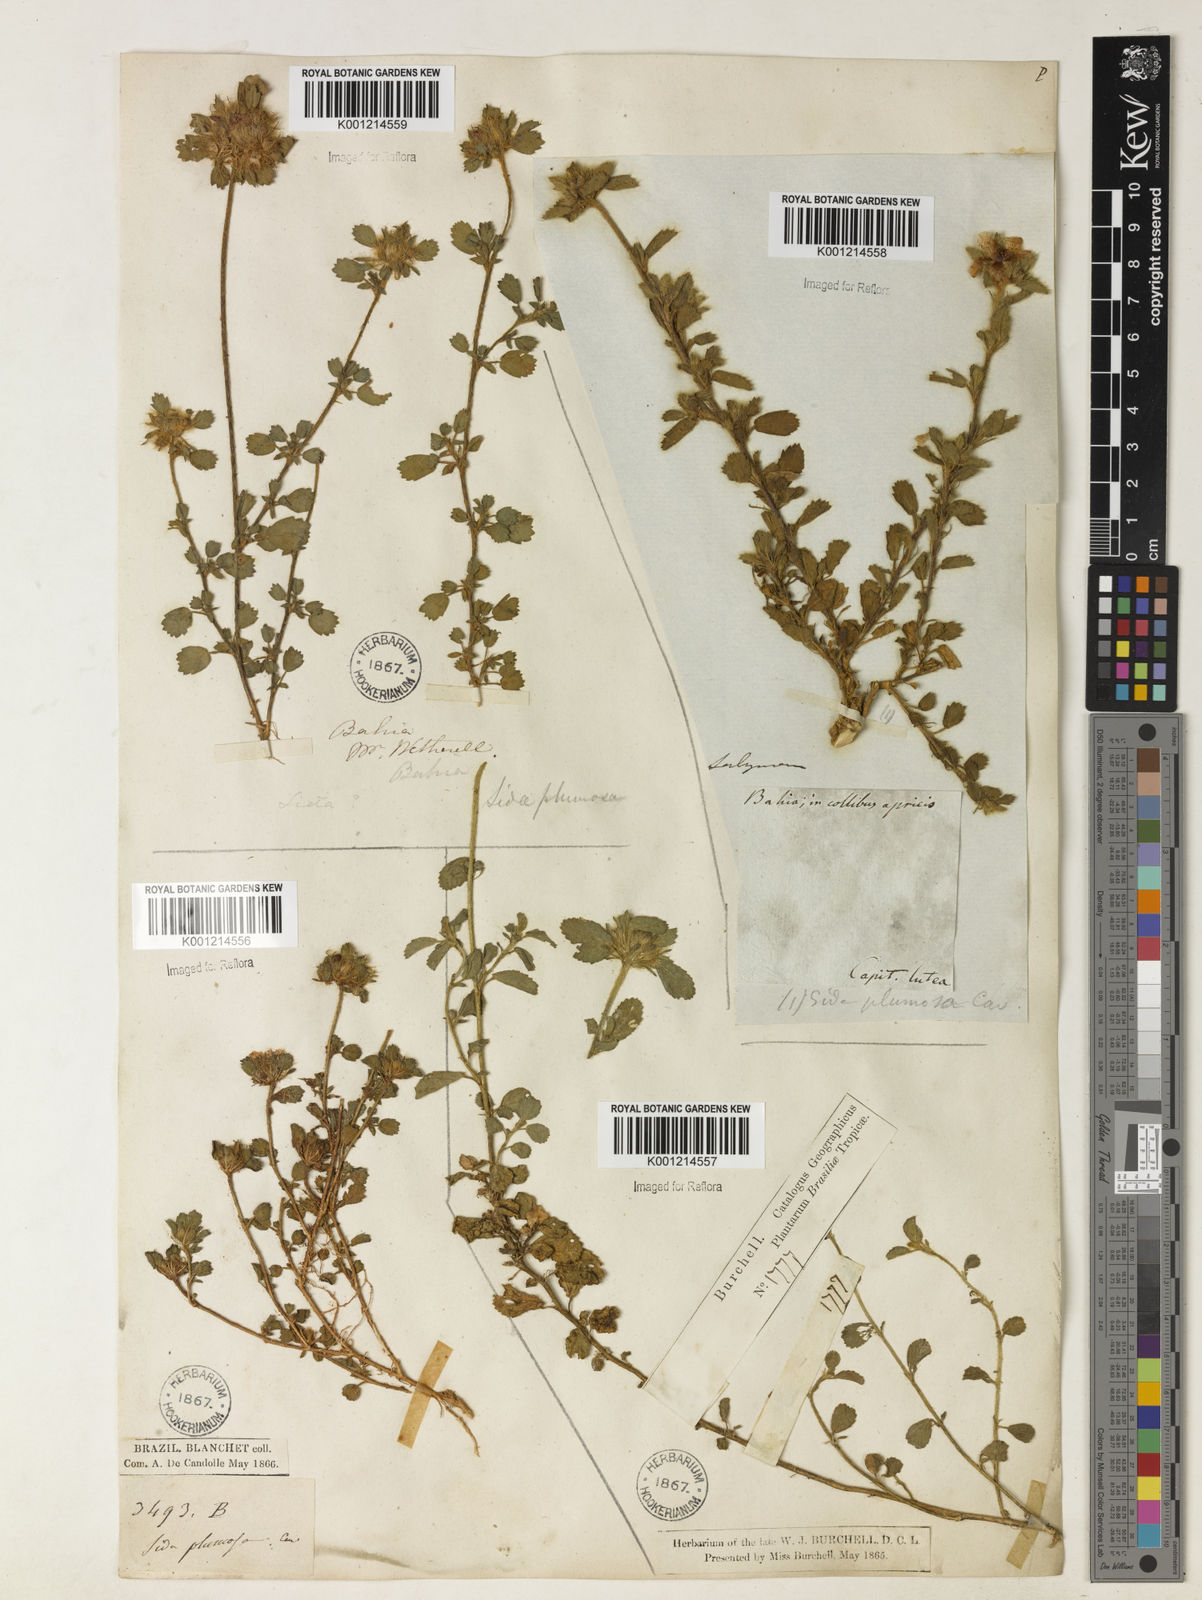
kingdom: Plantae
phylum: Tracheophyta
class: Magnoliopsida
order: Malvales
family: Malvaceae
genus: Sida
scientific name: Sida ciliaris
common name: Bracted fanpetals
